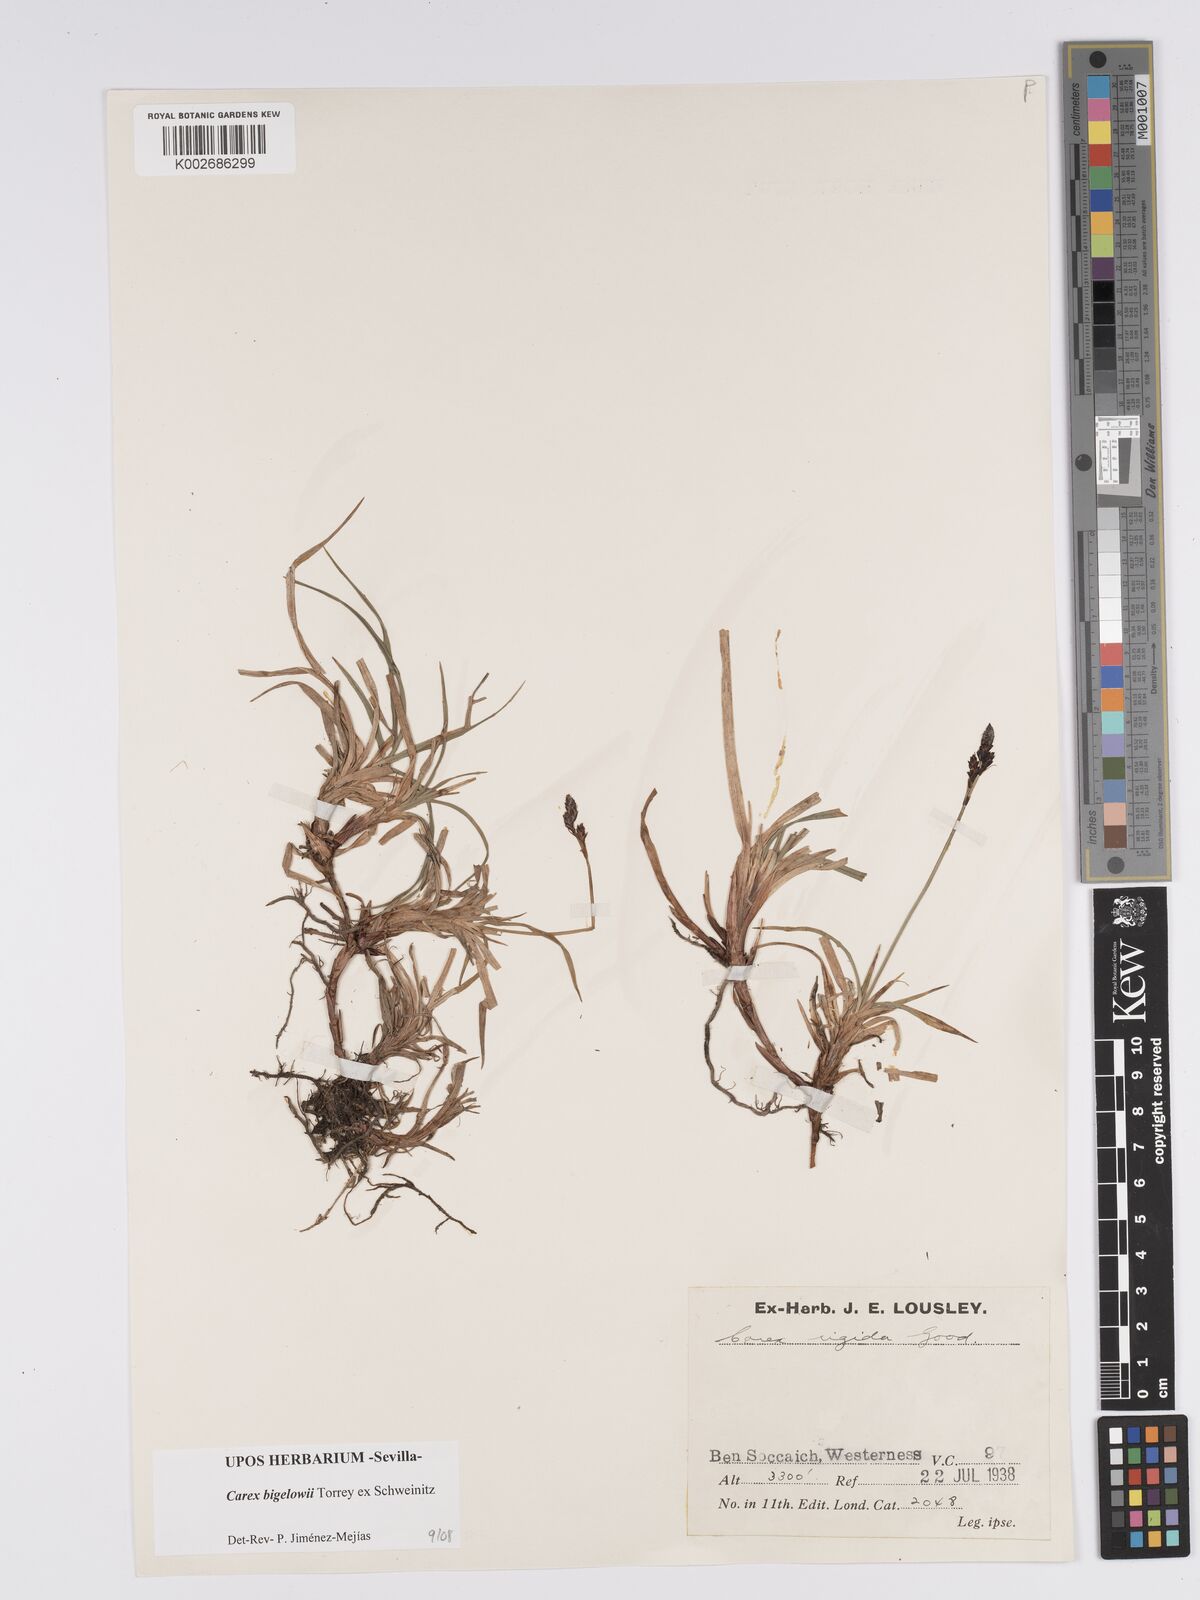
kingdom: Plantae
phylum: Tracheophyta
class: Liliopsida
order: Poales
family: Cyperaceae
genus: Carex
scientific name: Carex bigelowii
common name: Stiff sedge
